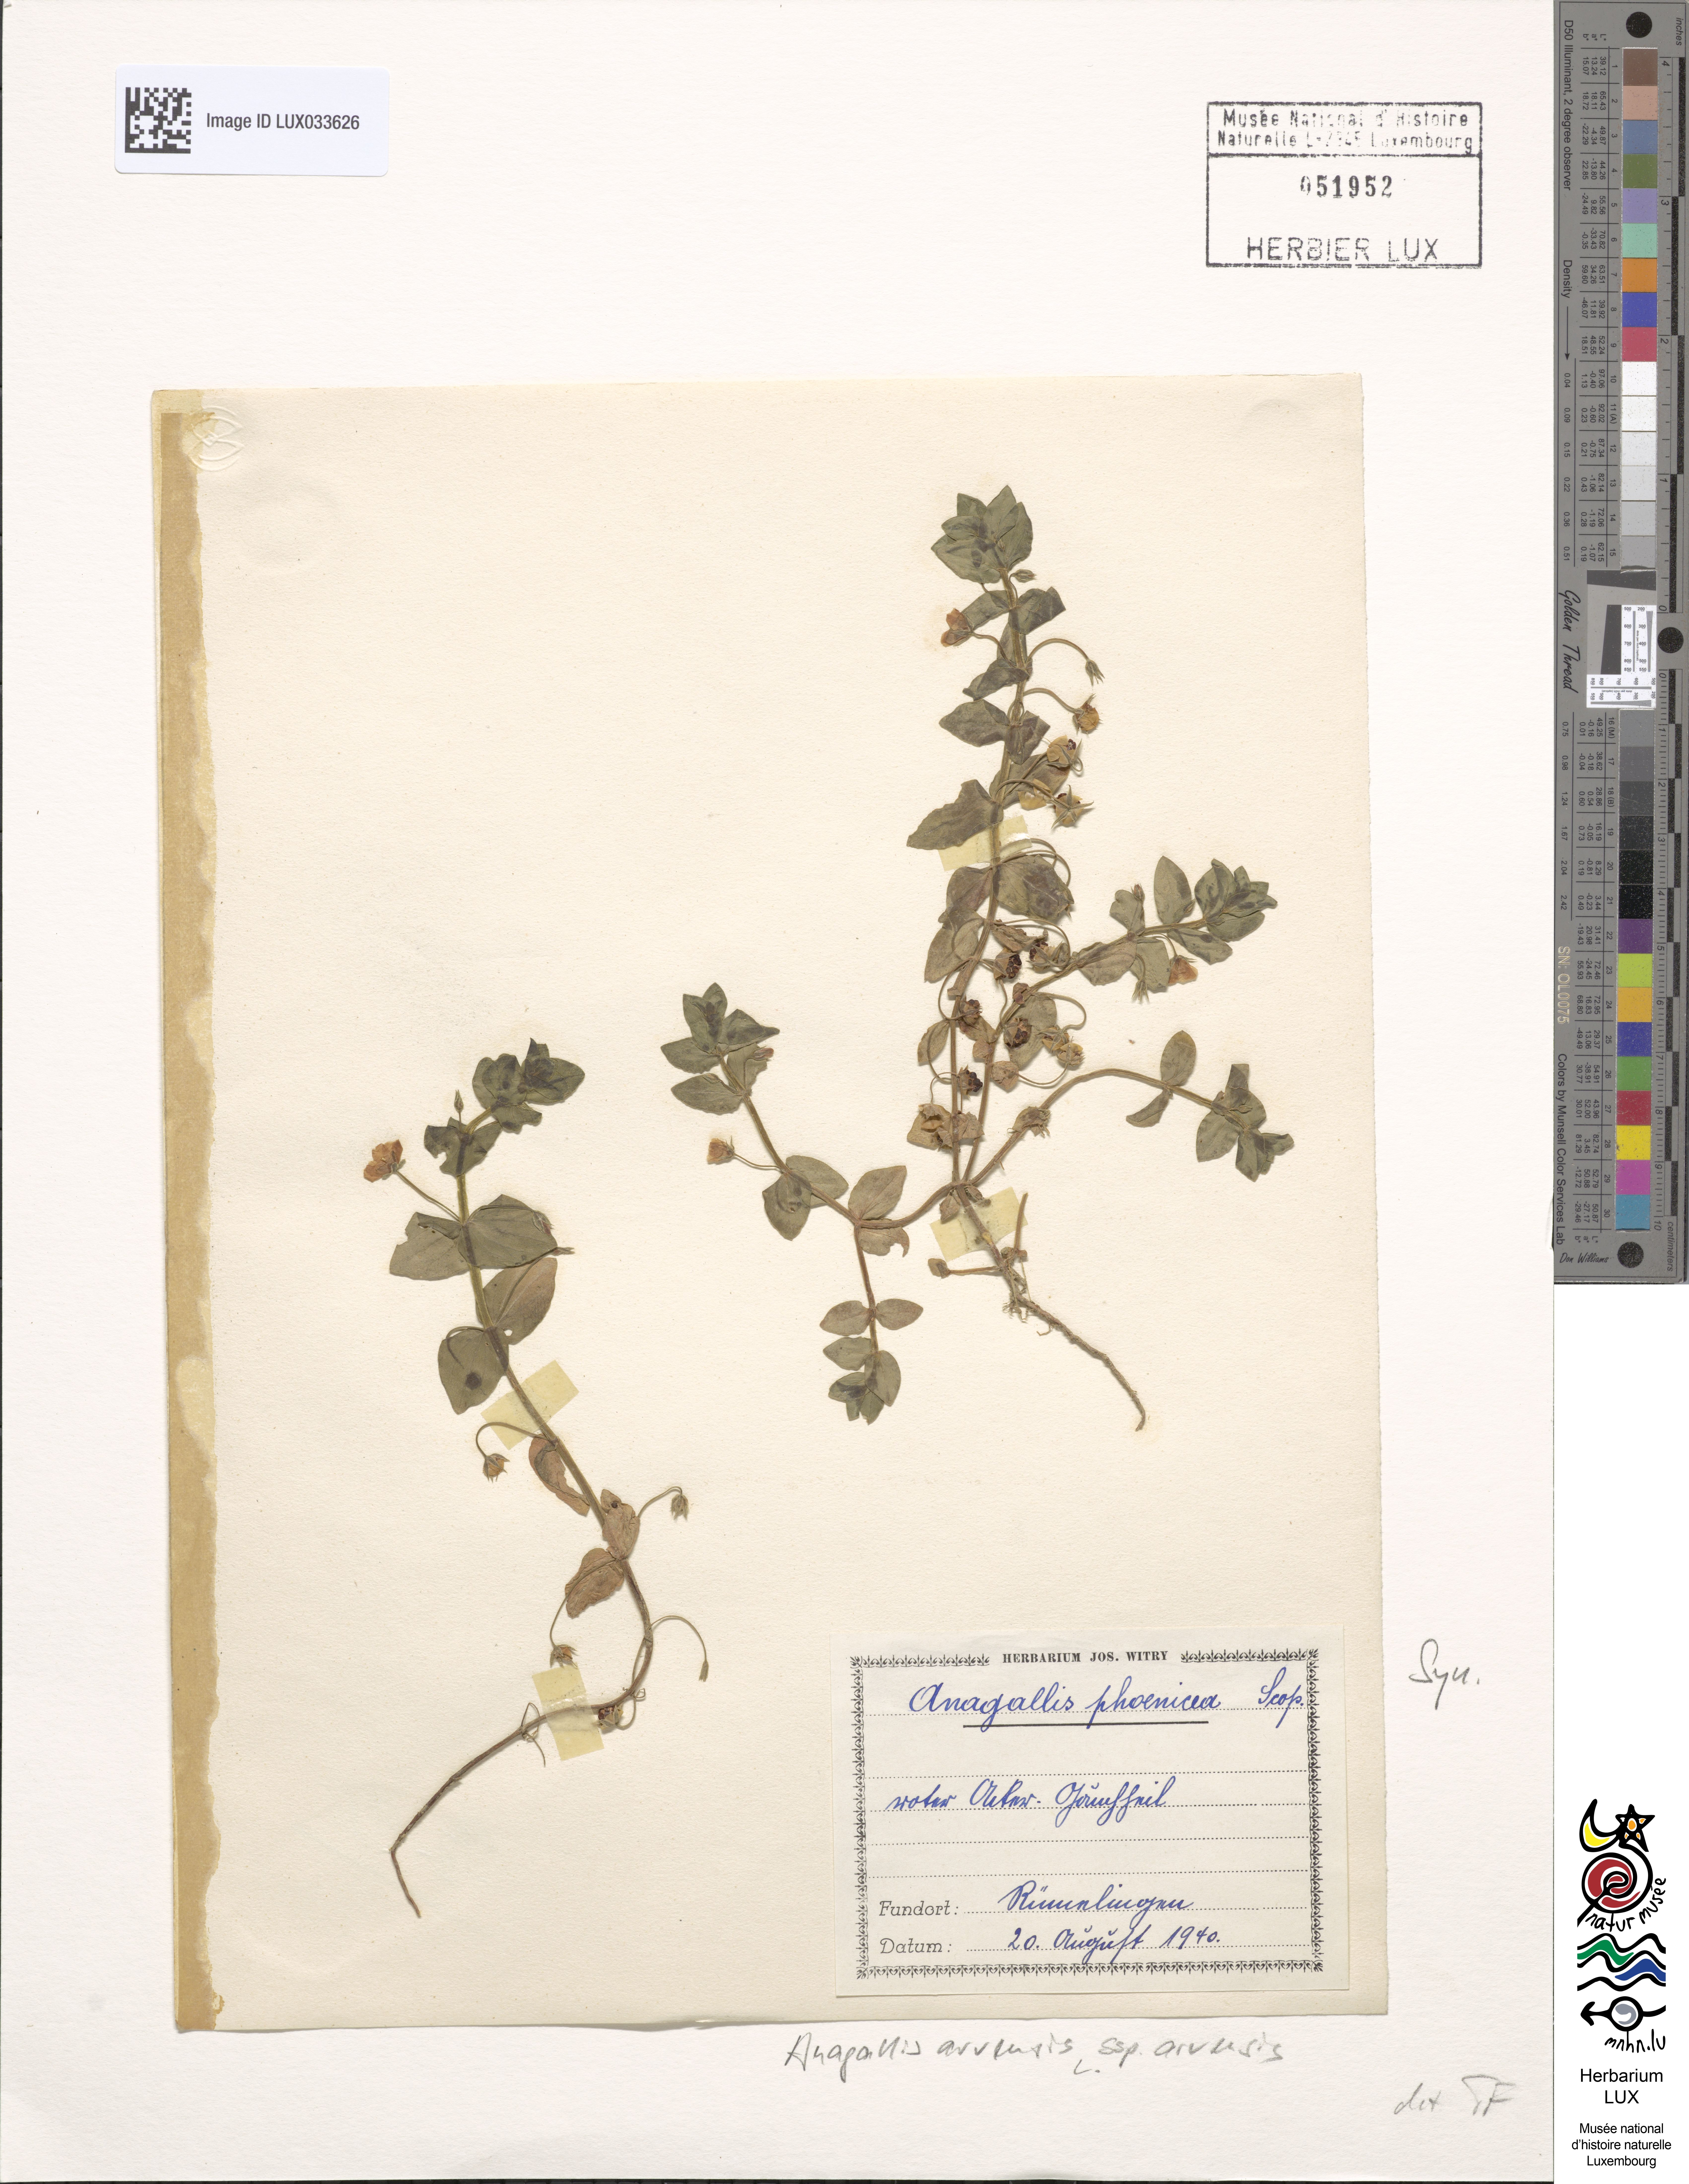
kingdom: Plantae
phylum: Tracheophyta
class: Magnoliopsida
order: Ericales
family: Primulaceae
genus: Lysimachia
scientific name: Lysimachia arvensis
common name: Scarlet pimpernel
